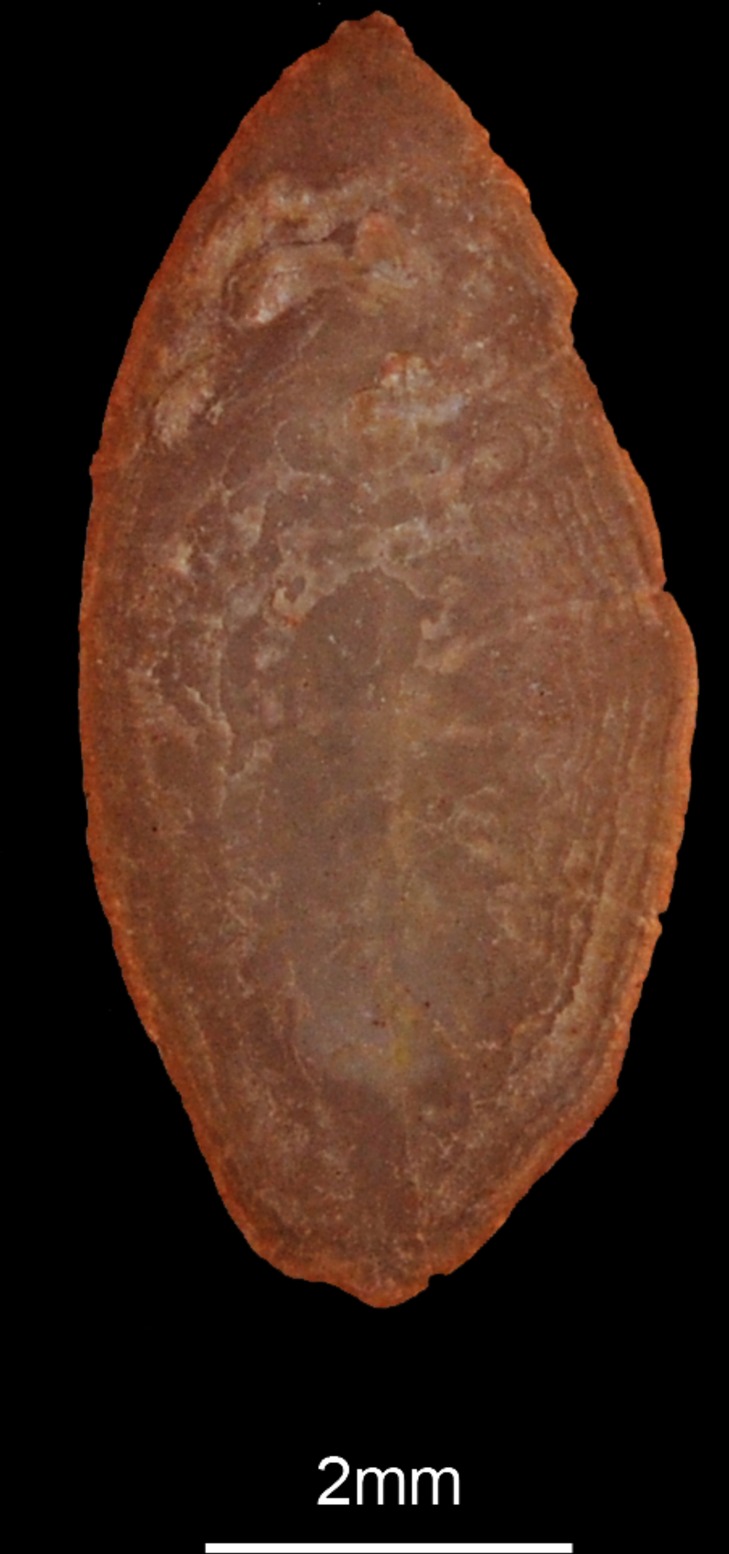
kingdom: Animalia
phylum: Chordata
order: Perciformes
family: Trachinidae
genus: Trachinus
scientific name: Trachinus draco
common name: Greater weever
